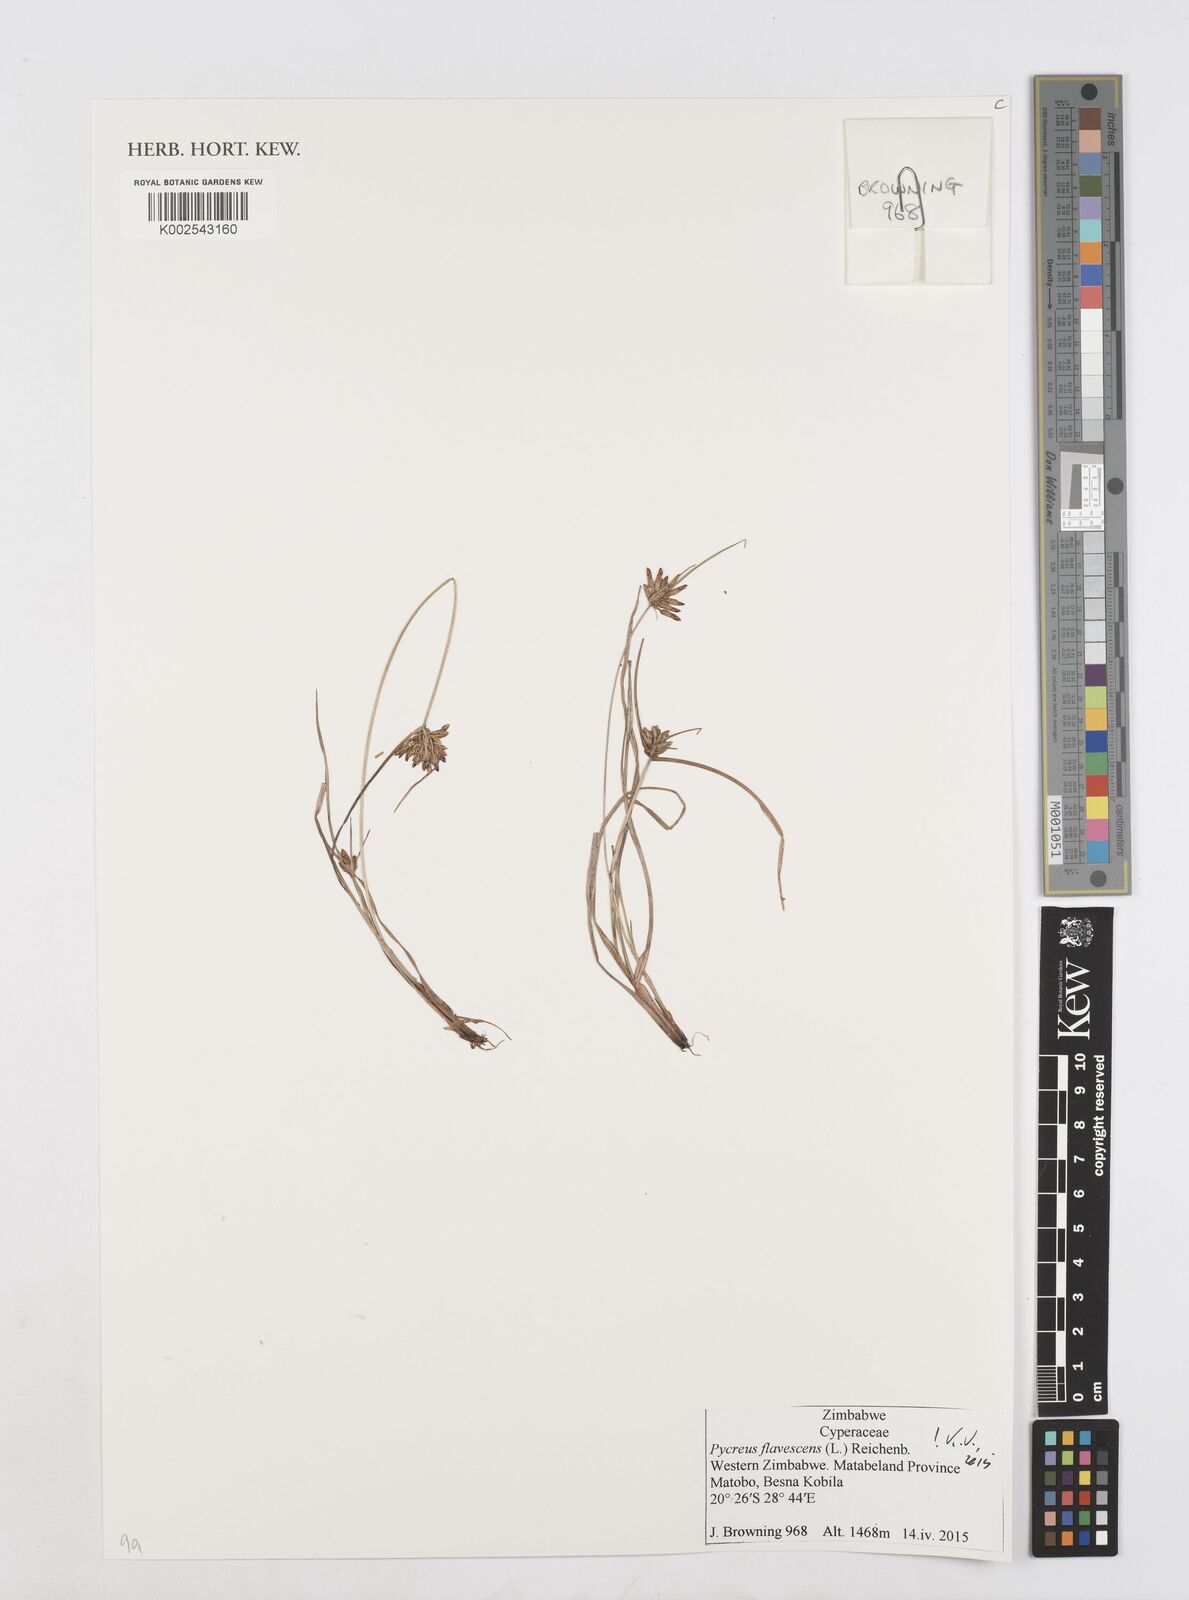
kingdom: Plantae
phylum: Tracheophyta
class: Liliopsida
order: Poales
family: Cyperaceae
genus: Cyperus
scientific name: Cyperus flavescens
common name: Yellow galingale
